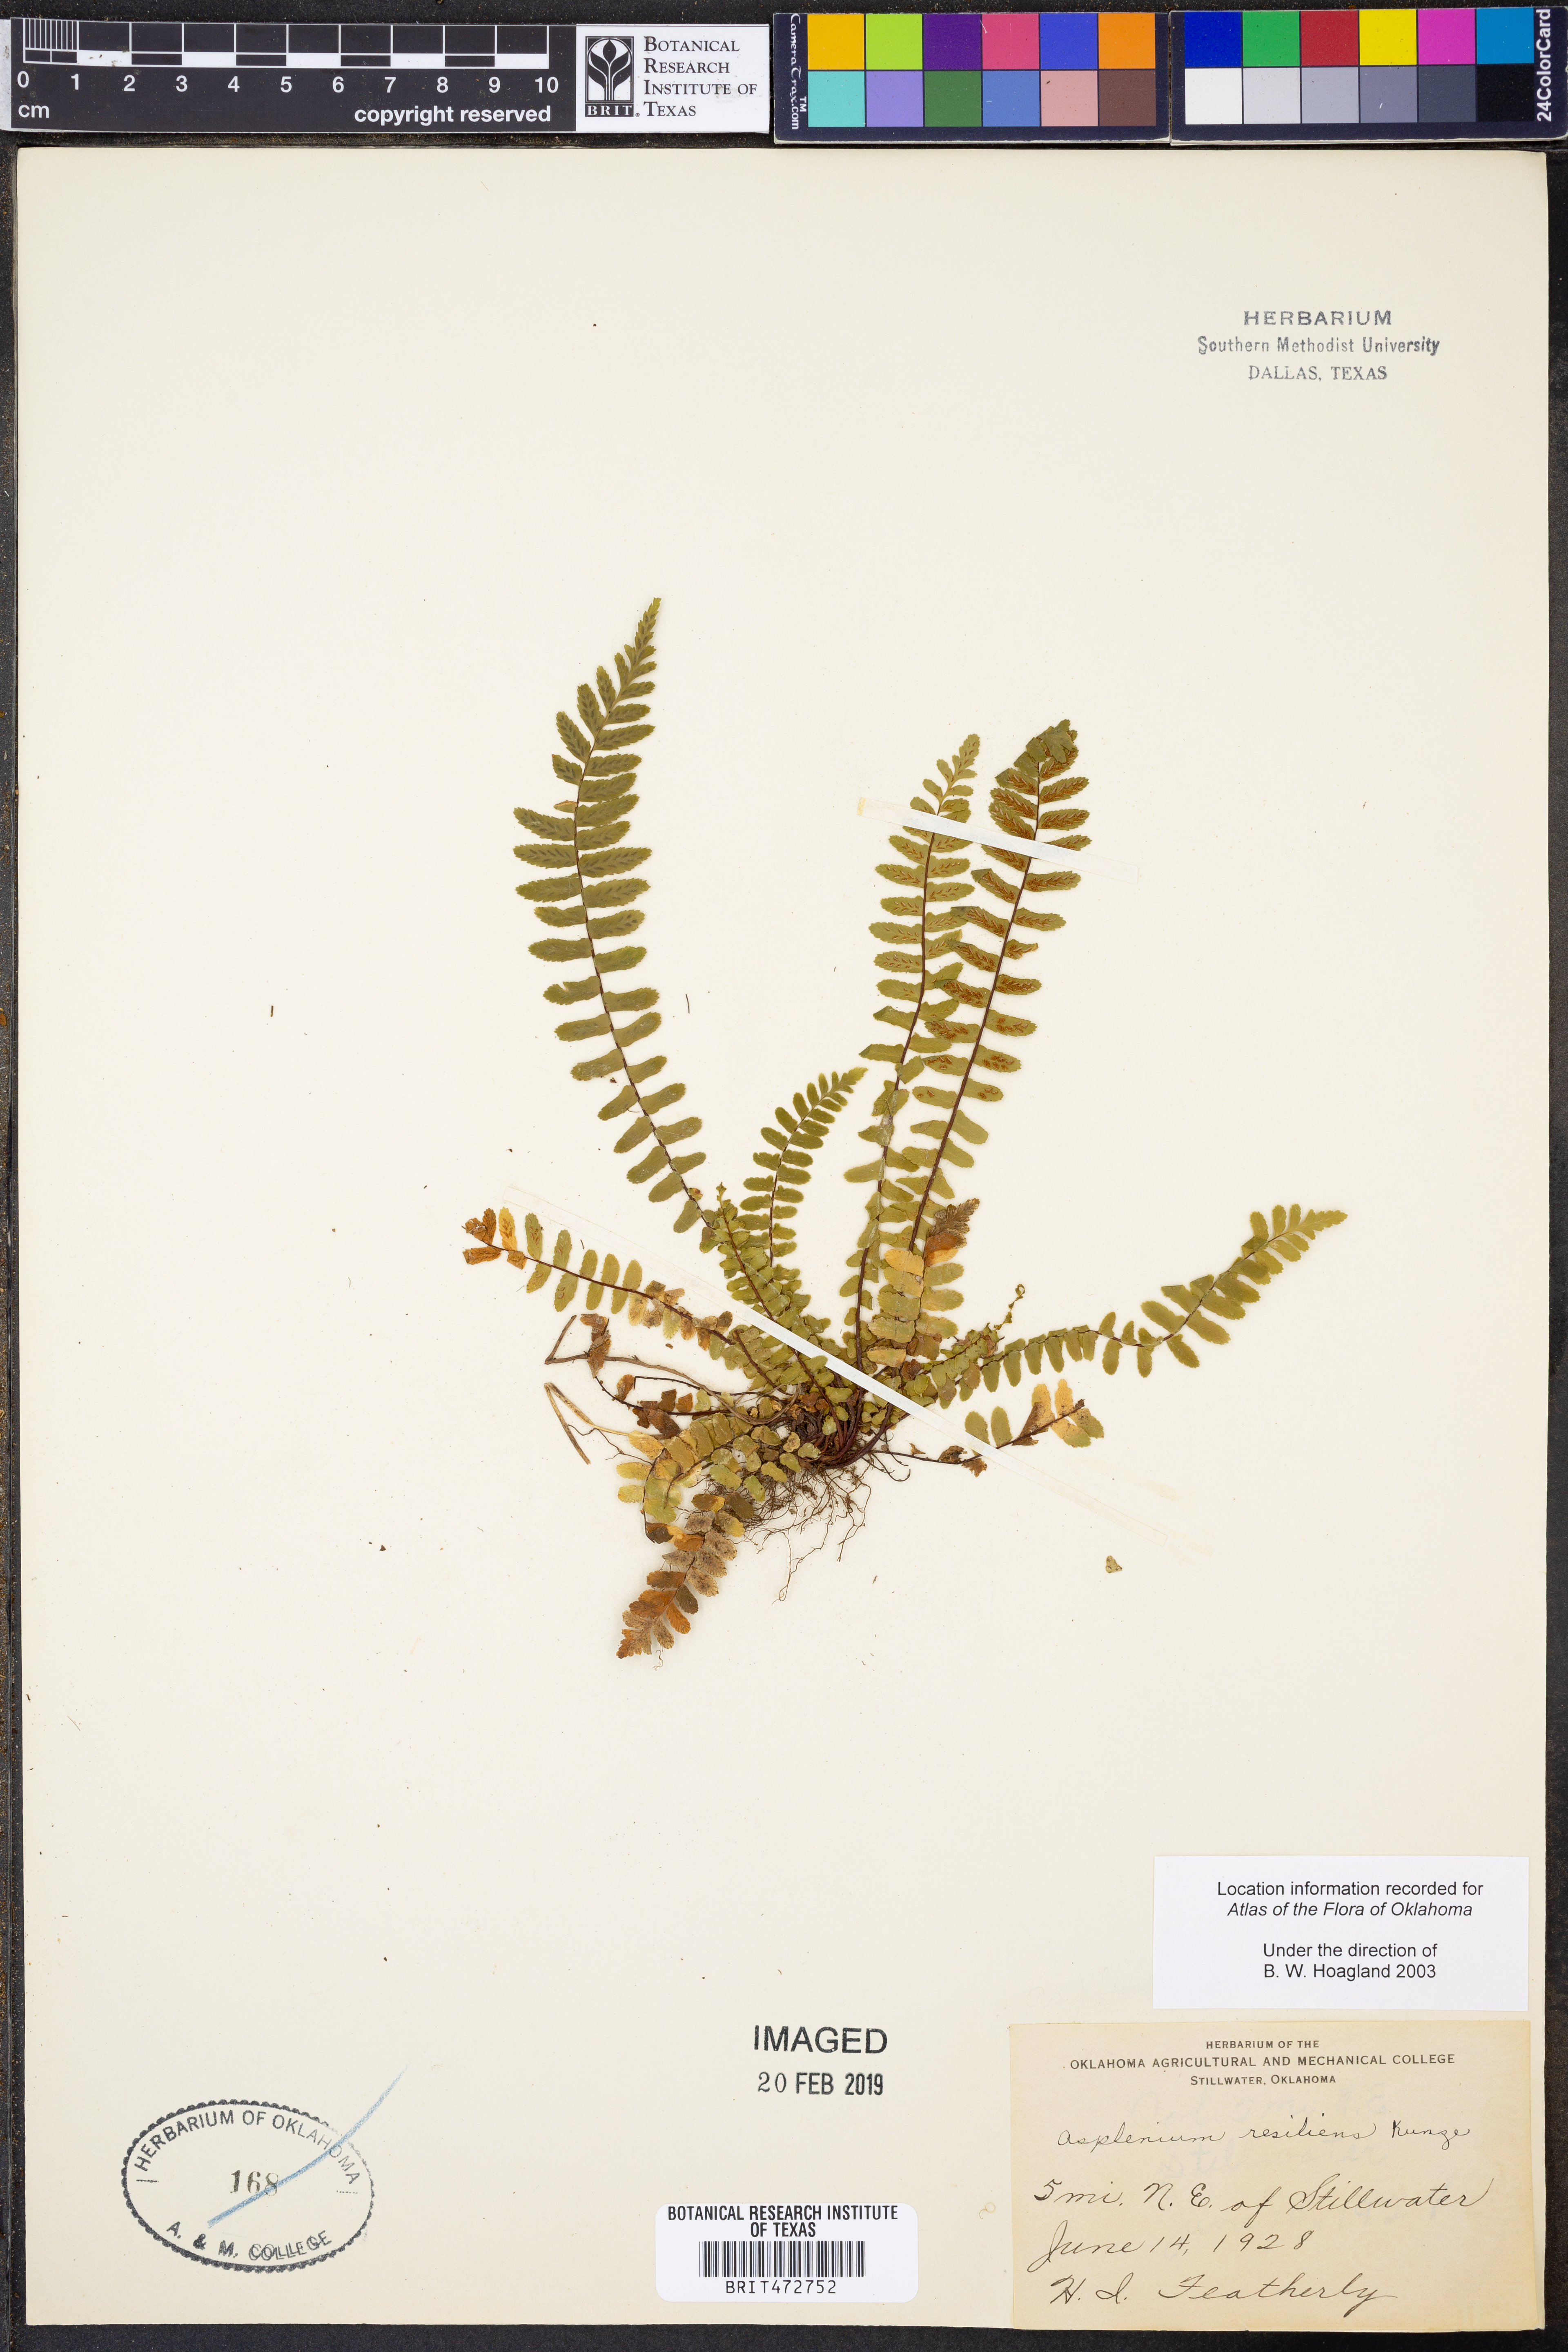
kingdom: Plantae
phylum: Tracheophyta
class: Polypodiopsida
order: Polypodiales
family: Aspleniaceae
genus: Asplenium
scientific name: Asplenium resiliens
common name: Blackstem spleenwort
